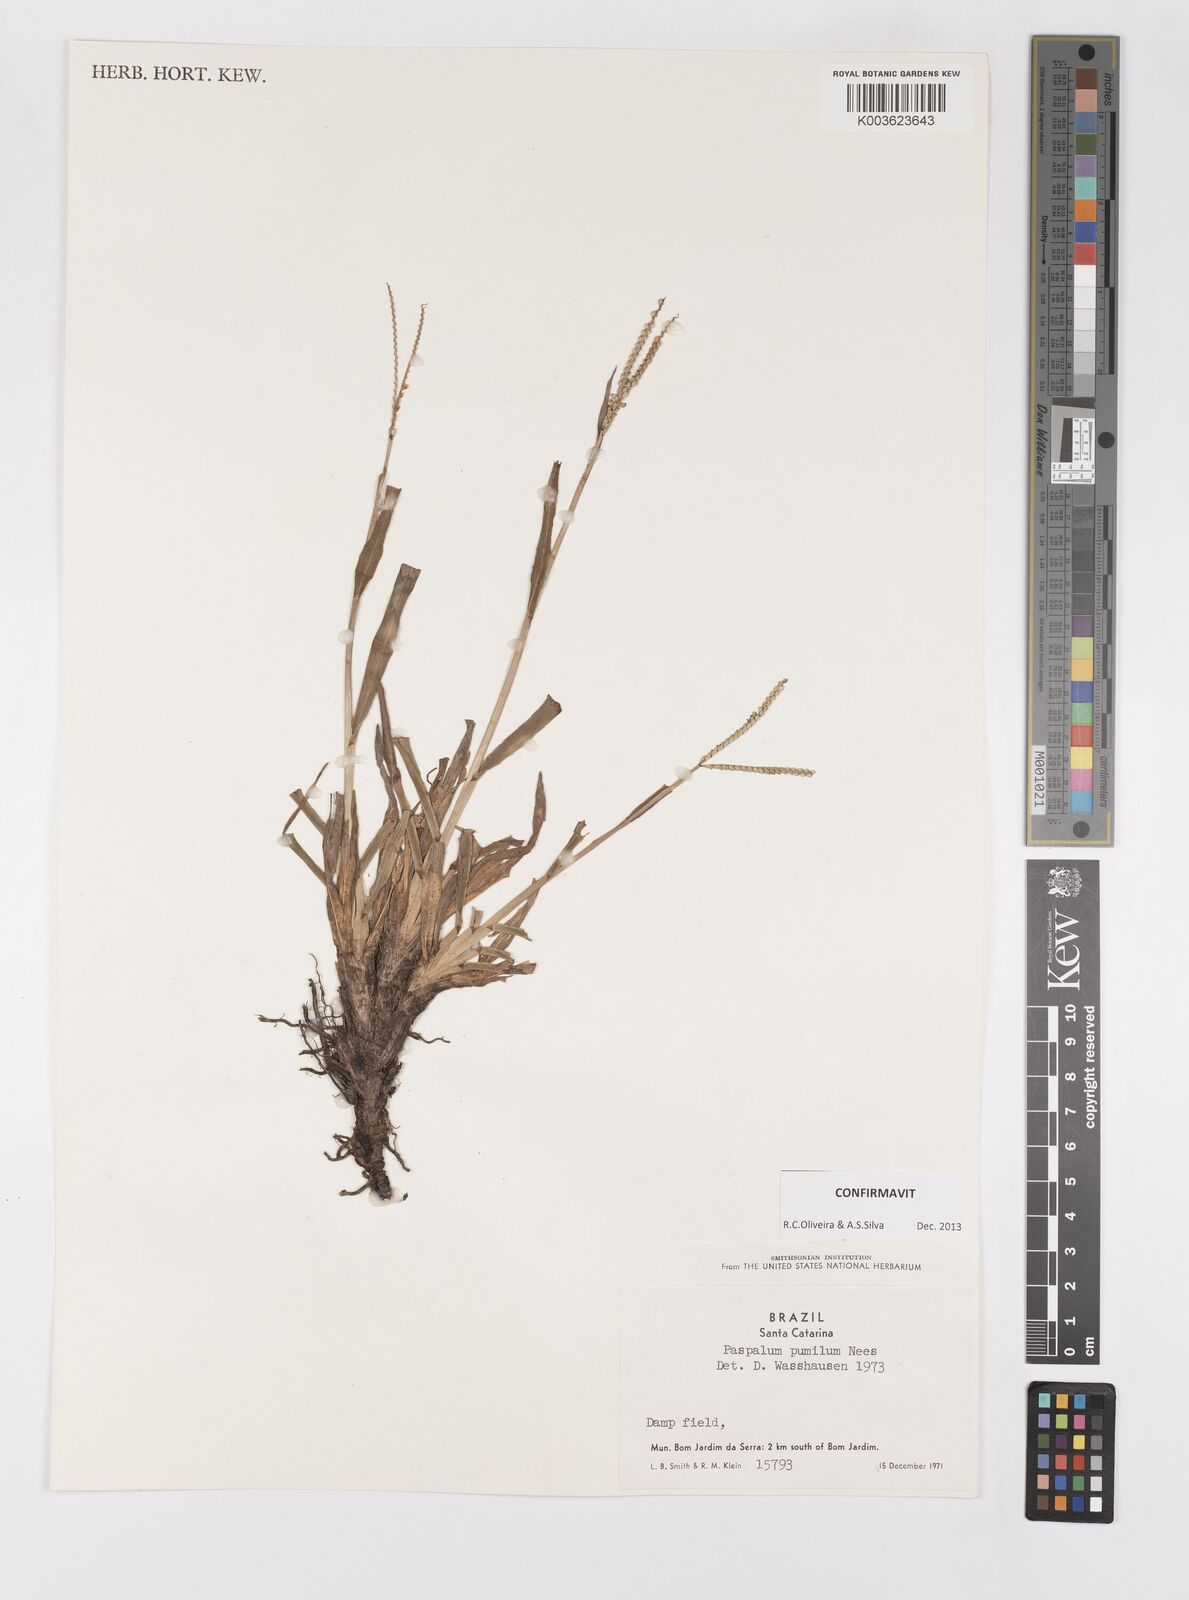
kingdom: Plantae
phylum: Tracheophyta
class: Liliopsida
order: Poales
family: Poaceae
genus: Paspalum
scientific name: Paspalum pumilum
